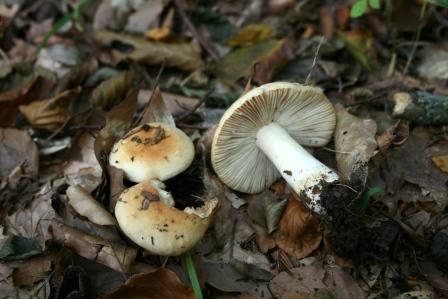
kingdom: Fungi
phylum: Basidiomycota
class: Agaricomycetes
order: Russulales
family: Russulaceae
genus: Russula
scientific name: Russula fellea
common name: galde-skørhat
